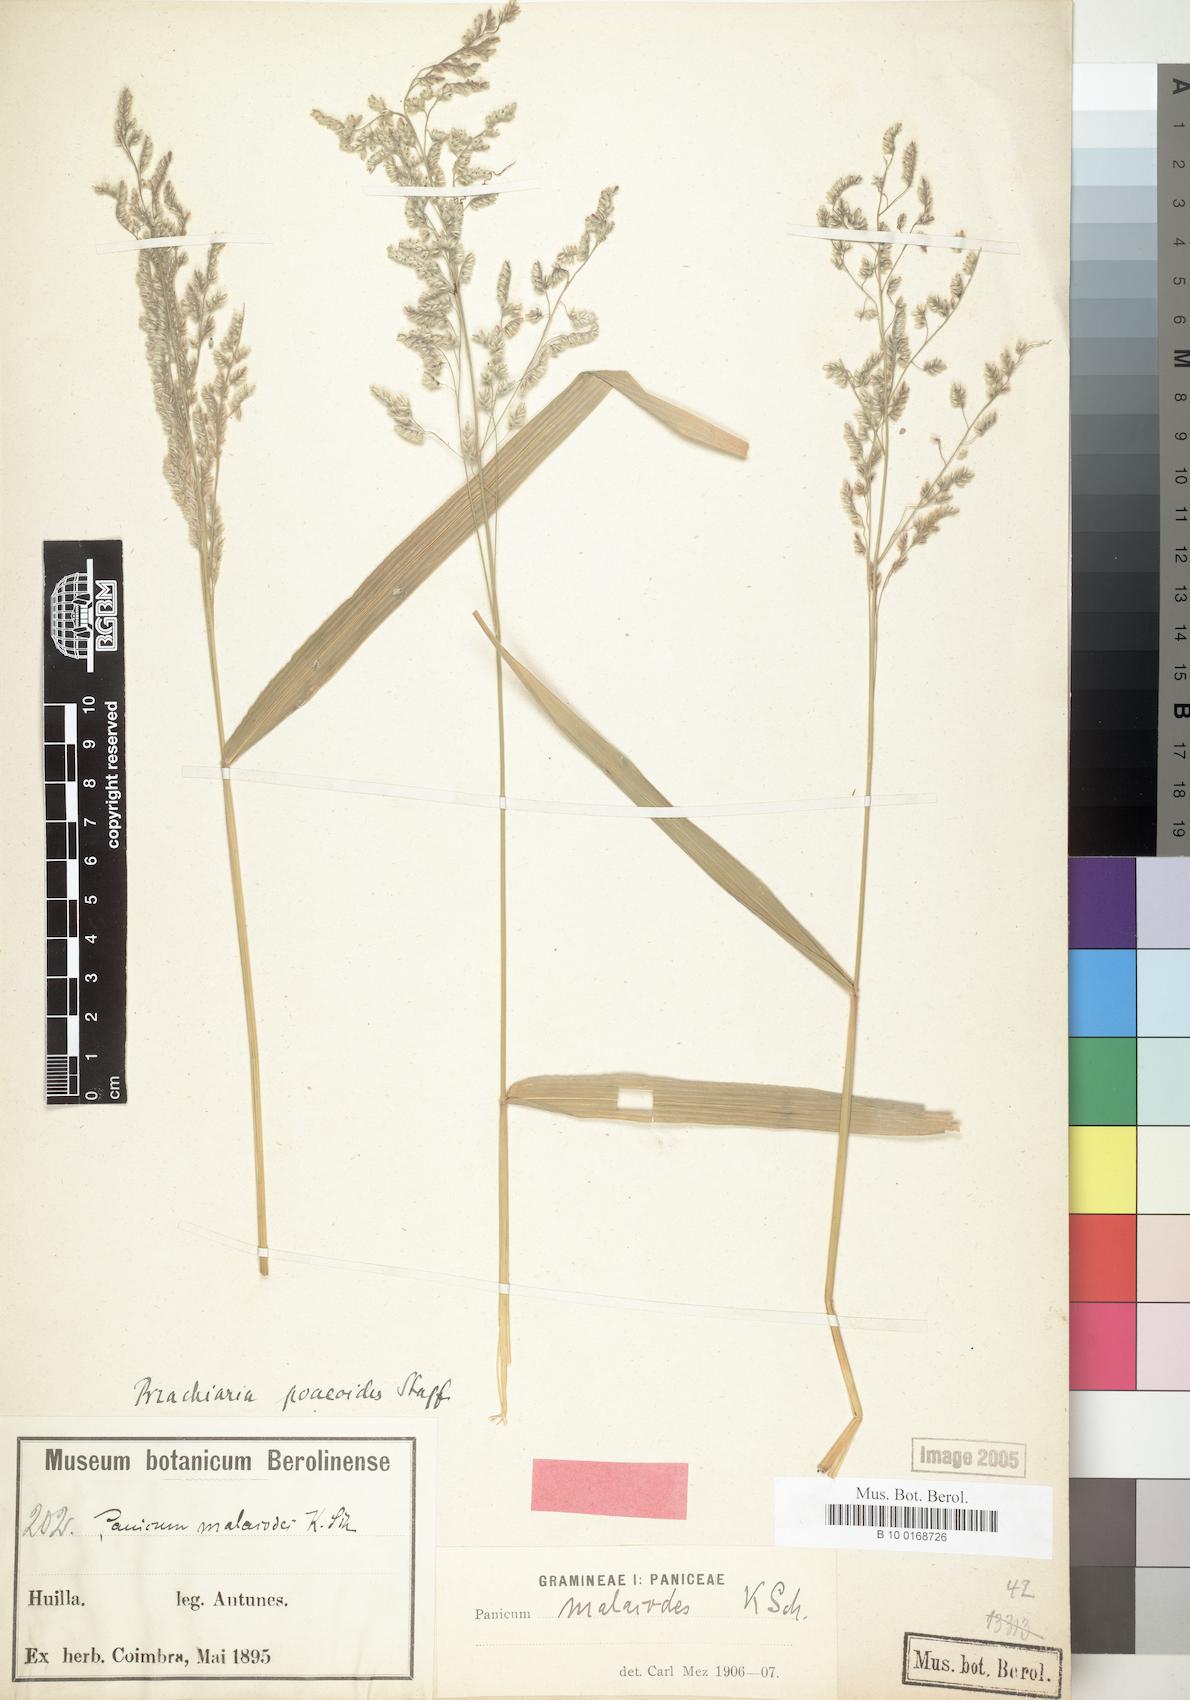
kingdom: Plantae
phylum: Tracheophyta
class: Liliopsida
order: Poales
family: Poaceae
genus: Moorochloa
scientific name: Moorochloa malacodes
